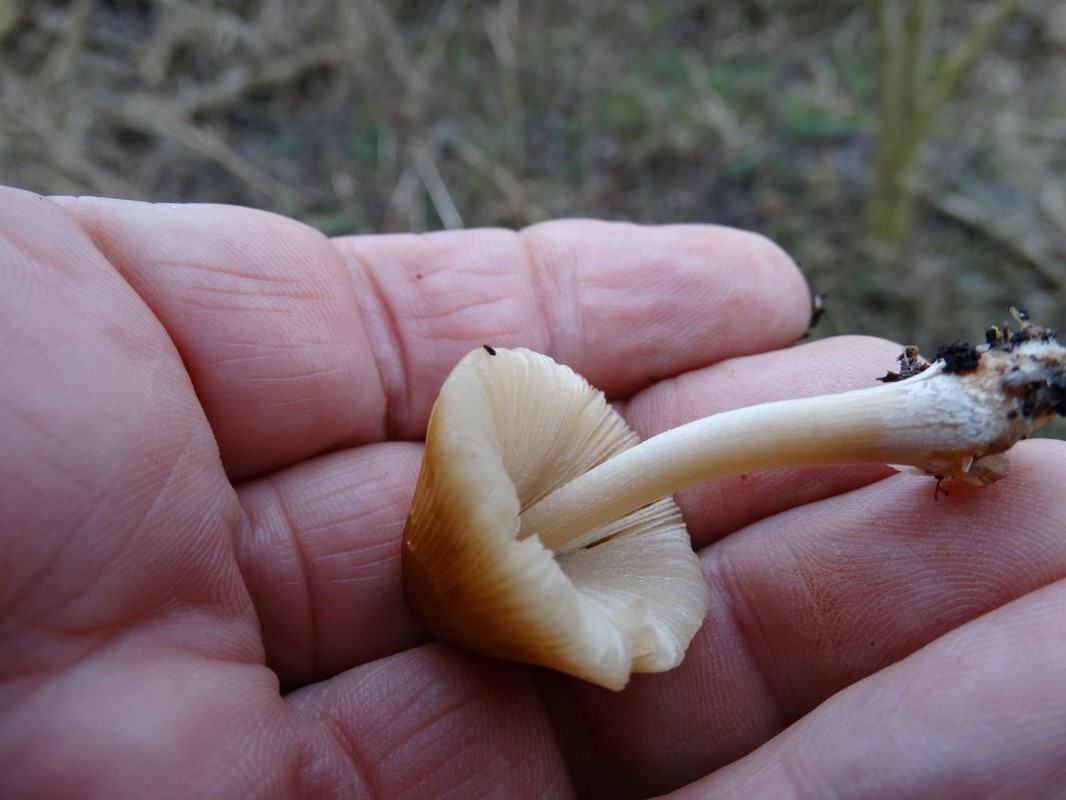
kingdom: Fungi
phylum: Basidiomycota
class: Agaricomycetes
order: Agaricales
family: Psathyrellaceae
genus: Coprinellus
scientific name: Coprinellus micaceus
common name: glimmer-blækhat
